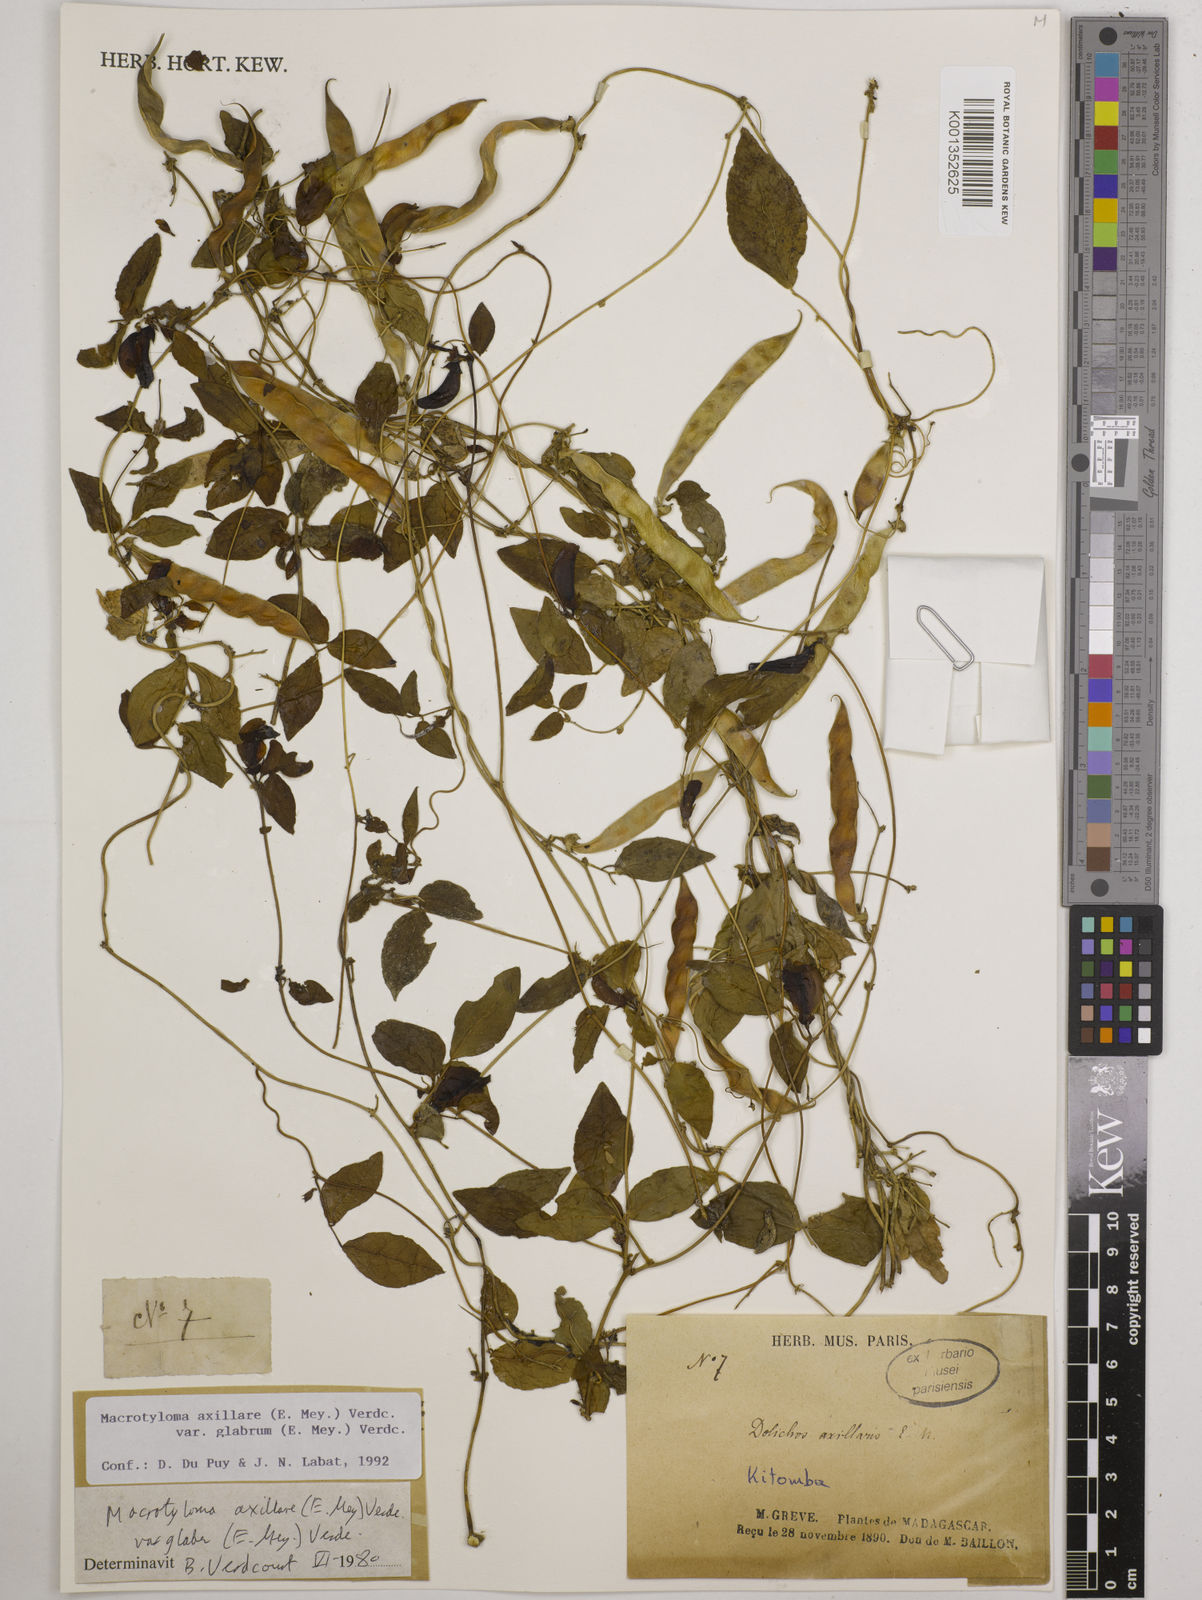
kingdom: Plantae
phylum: Tracheophyta
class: Magnoliopsida
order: Fabales
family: Fabaceae
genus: Macrotyloma
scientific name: Macrotyloma
